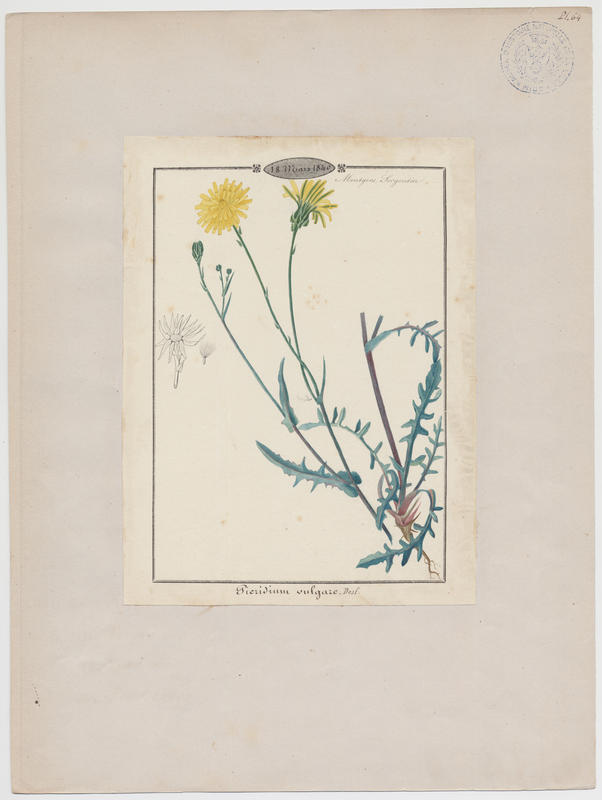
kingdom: Plantae
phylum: Tracheophyta
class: Magnoliopsida
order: Asterales
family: Asteraceae
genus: Reichardia
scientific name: Reichardia picroides
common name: Common brighteyes
